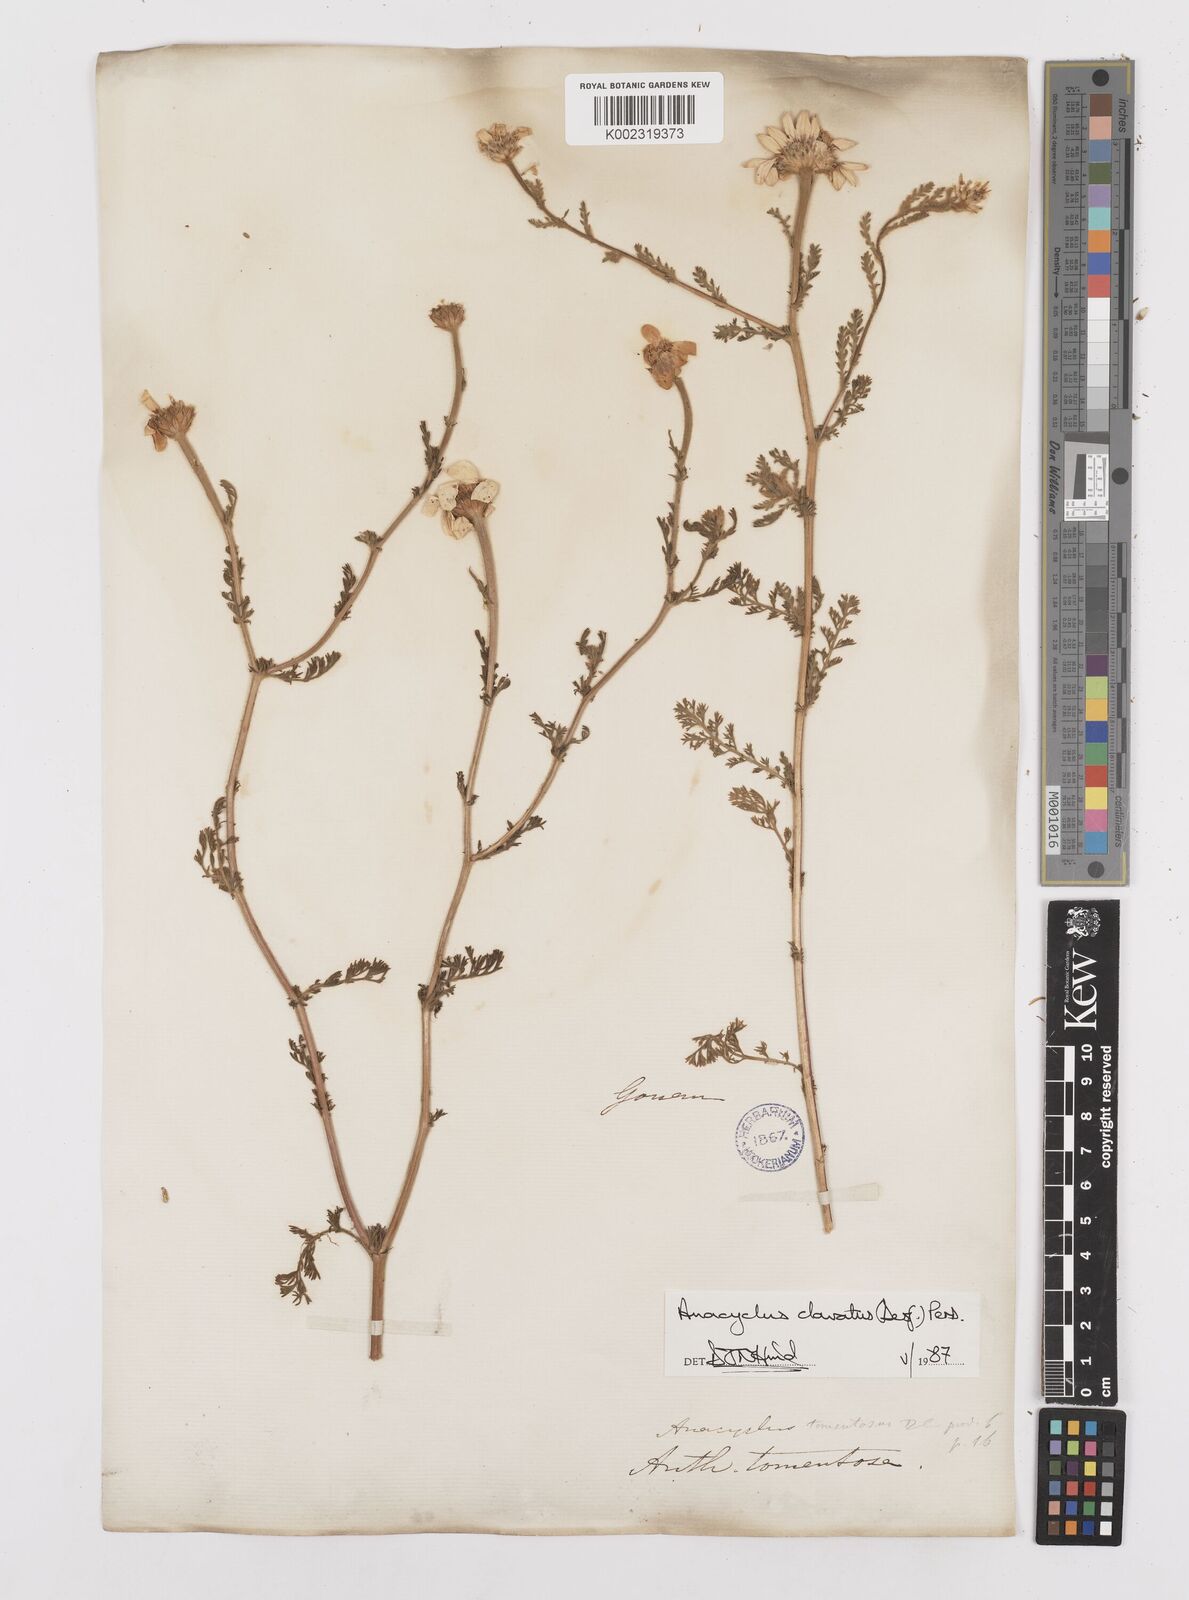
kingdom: Plantae
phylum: Tracheophyta
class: Magnoliopsida
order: Asterales
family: Asteraceae
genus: Anacyclus
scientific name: Anacyclus clavatus
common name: Whitebuttons
